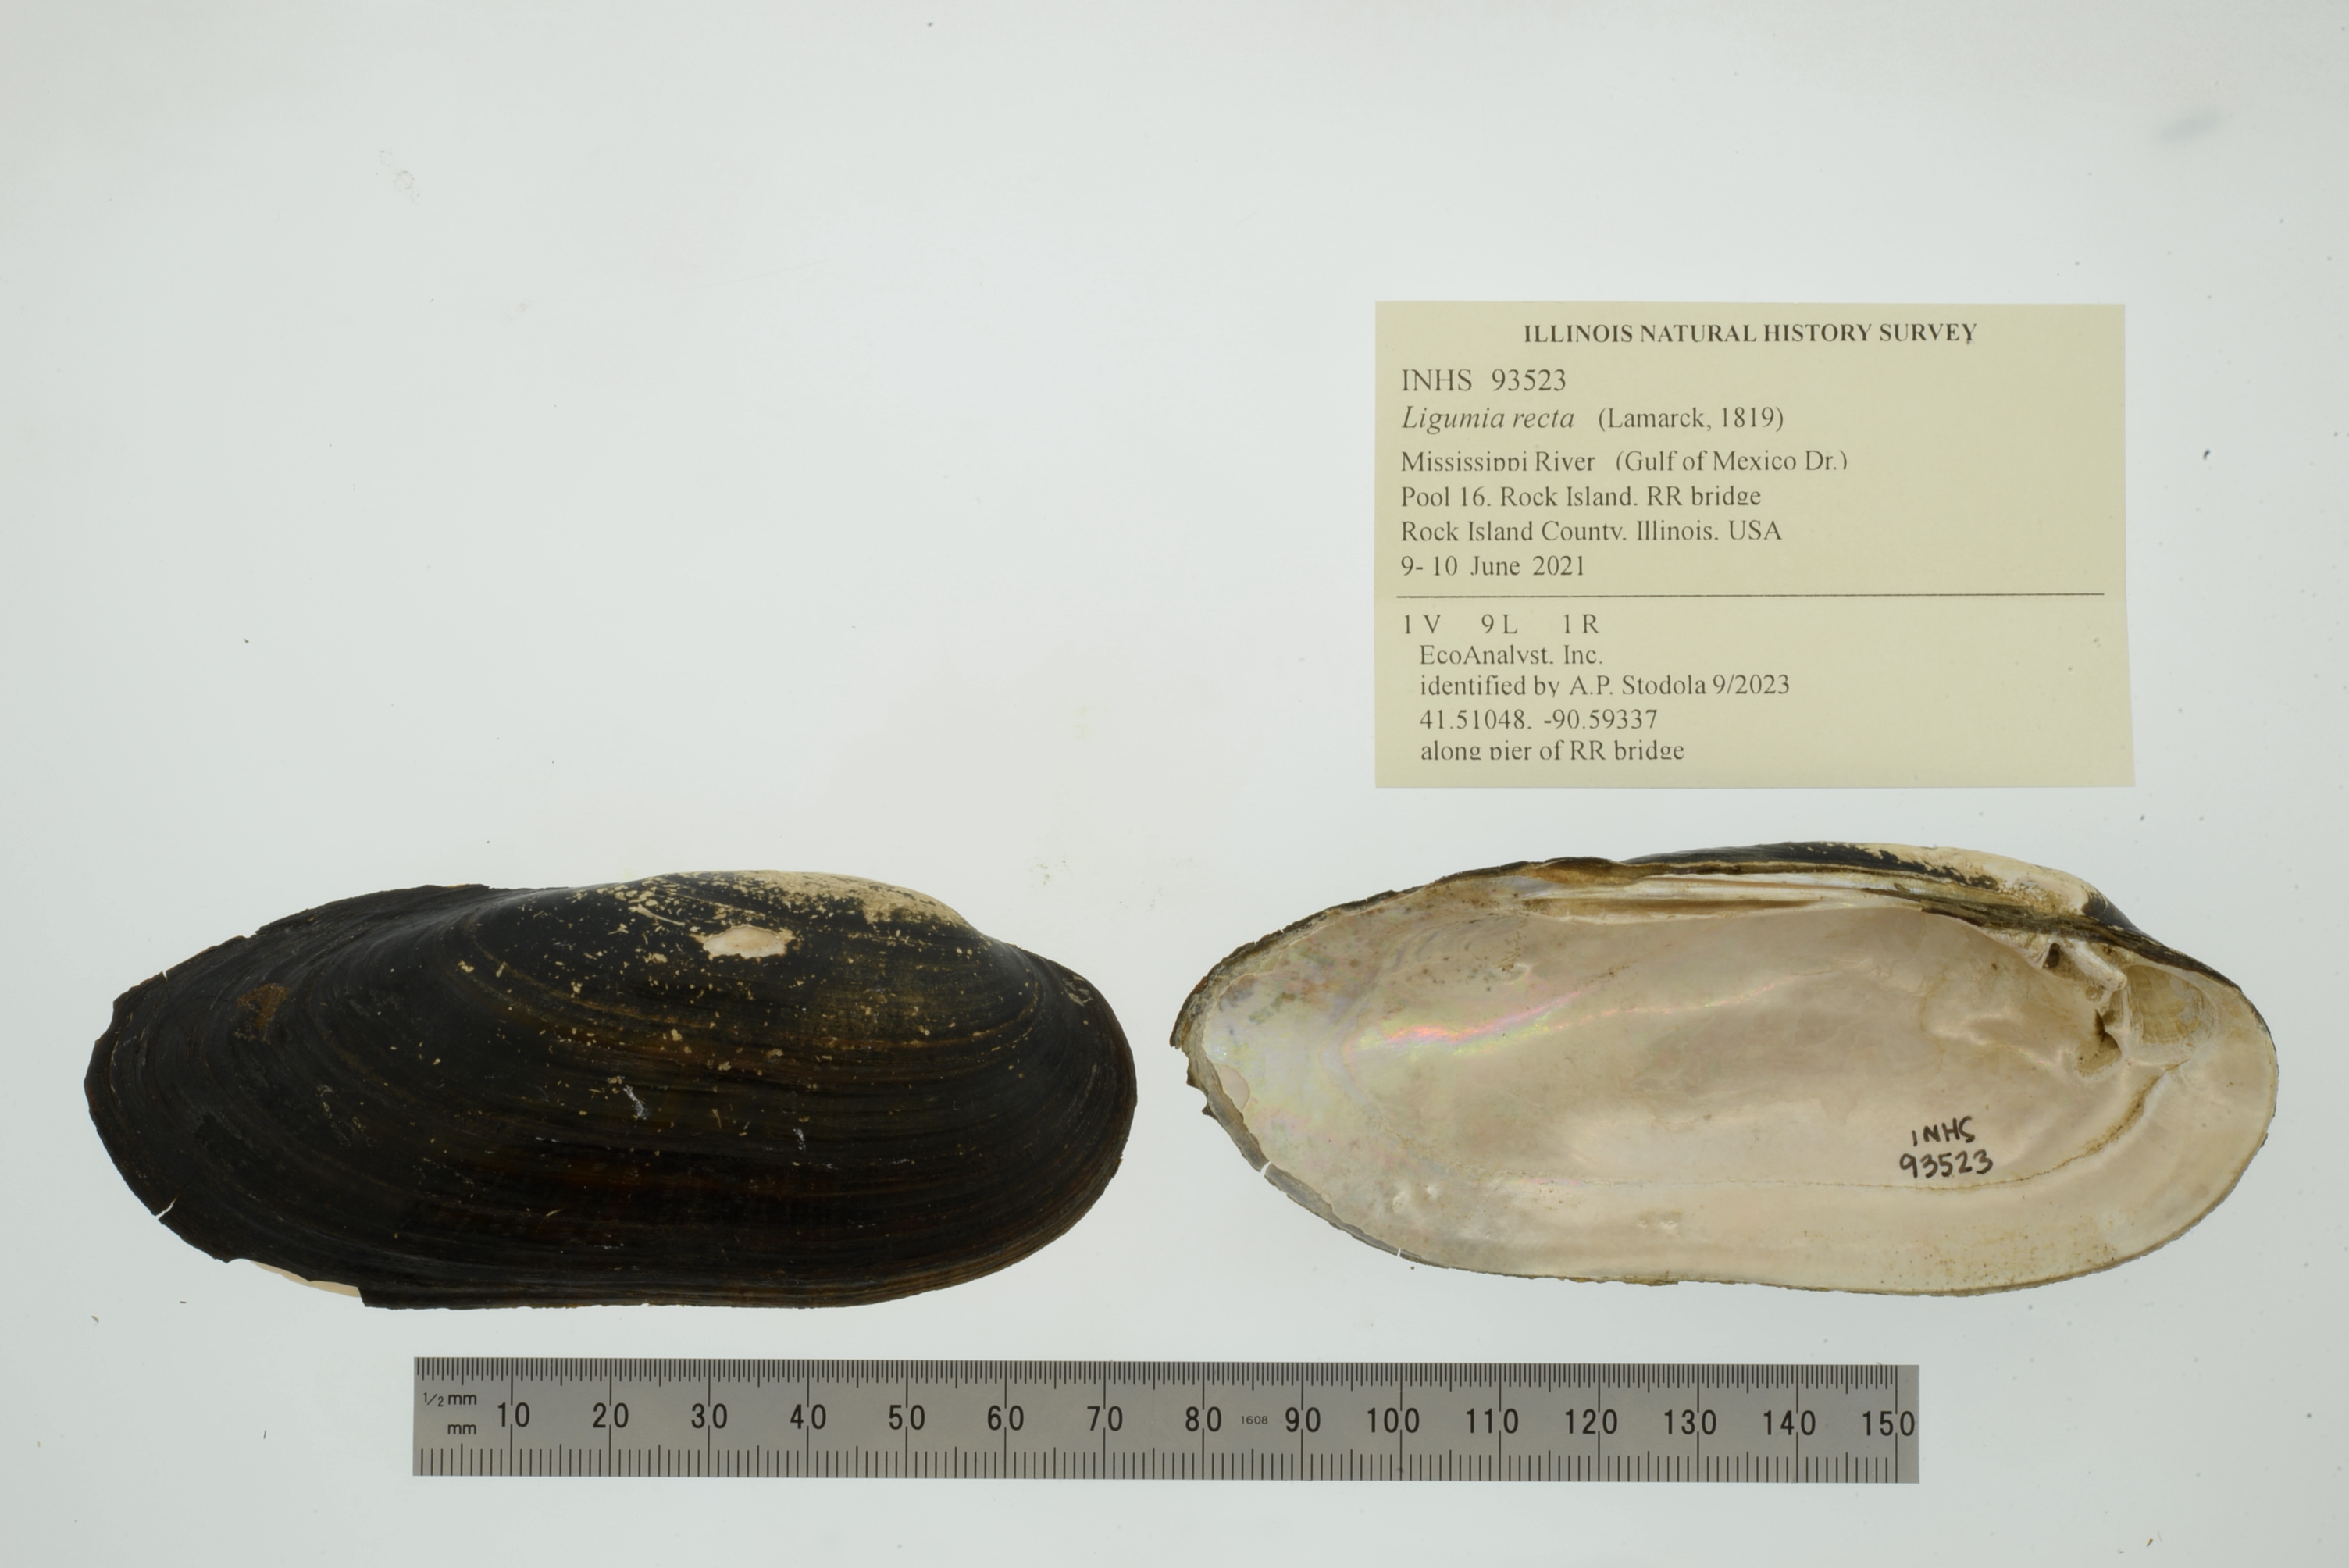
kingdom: Animalia
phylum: Mollusca
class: Bivalvia
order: Unionida
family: Unionidae
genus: Ligumia
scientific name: Ligumia recta
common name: Black sandshell
